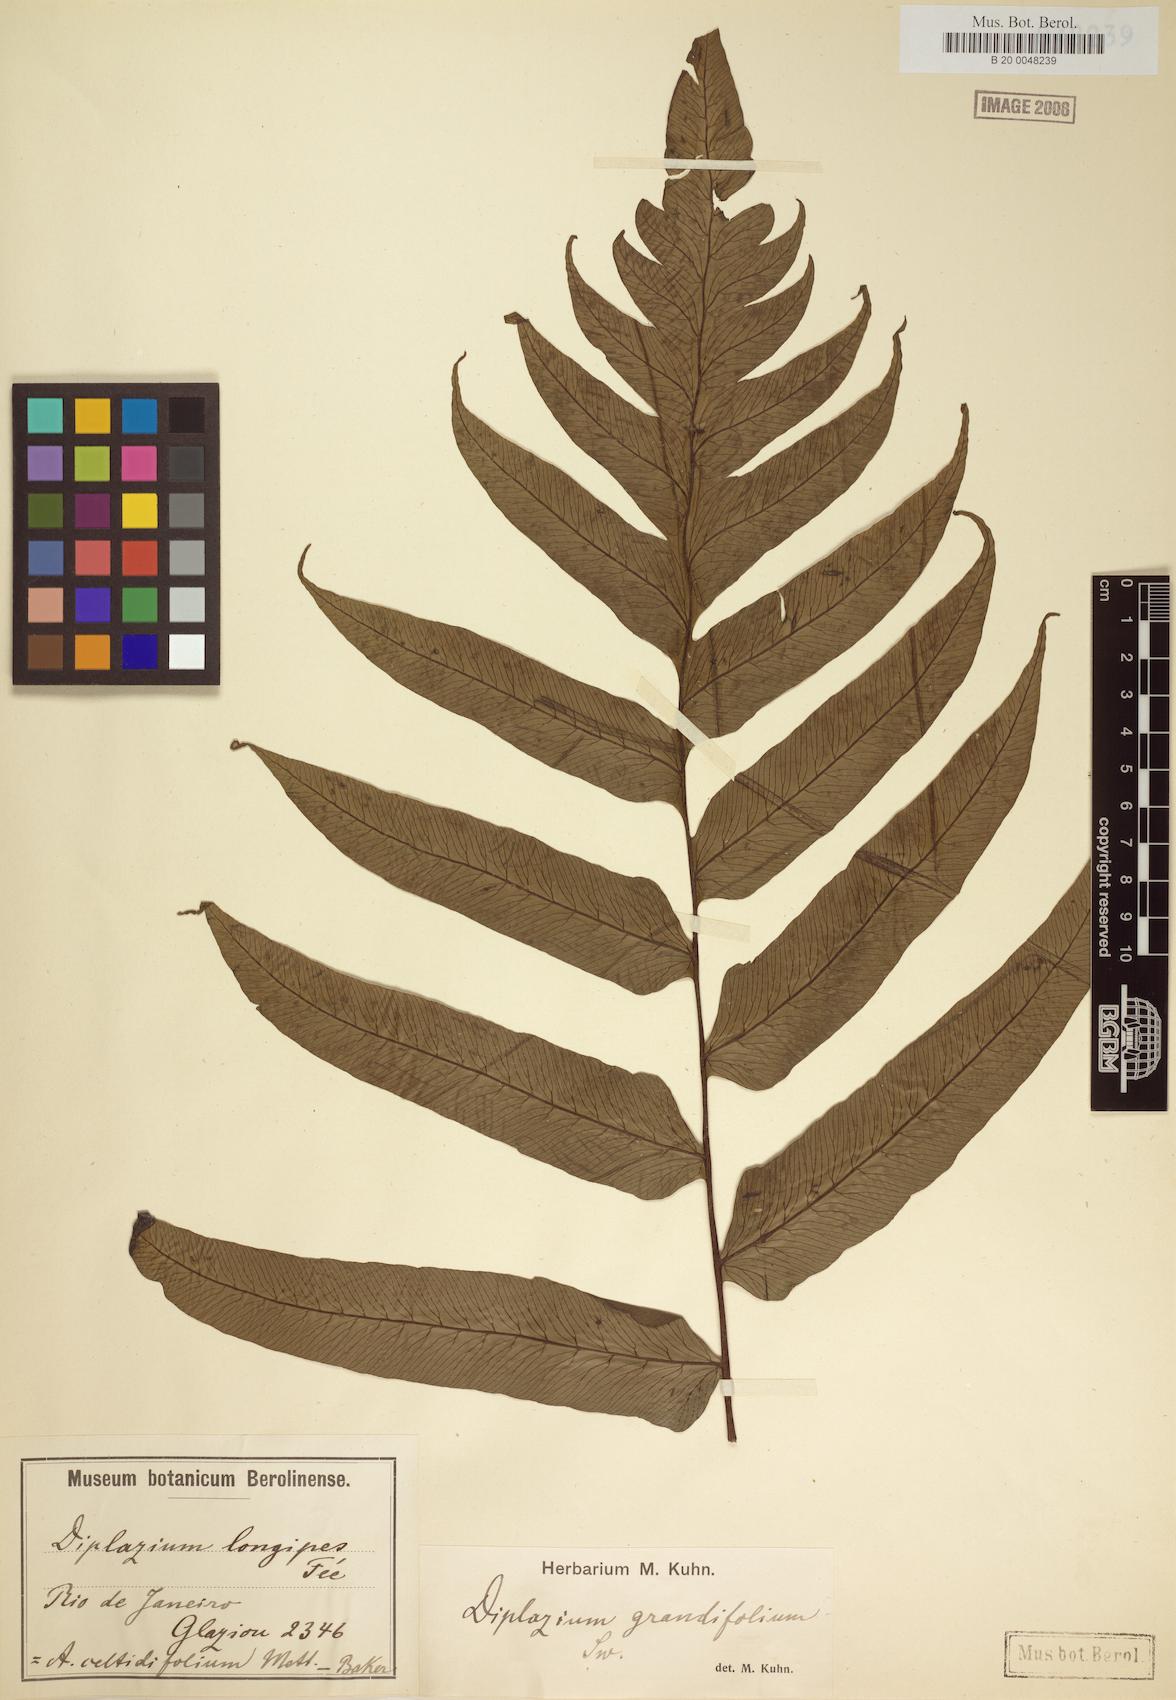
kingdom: Plantae
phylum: Tracheophyta
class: Polypodiopsida
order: Polypodiales
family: Athyriaceae
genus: Diplazium
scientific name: Diplazium longipes
